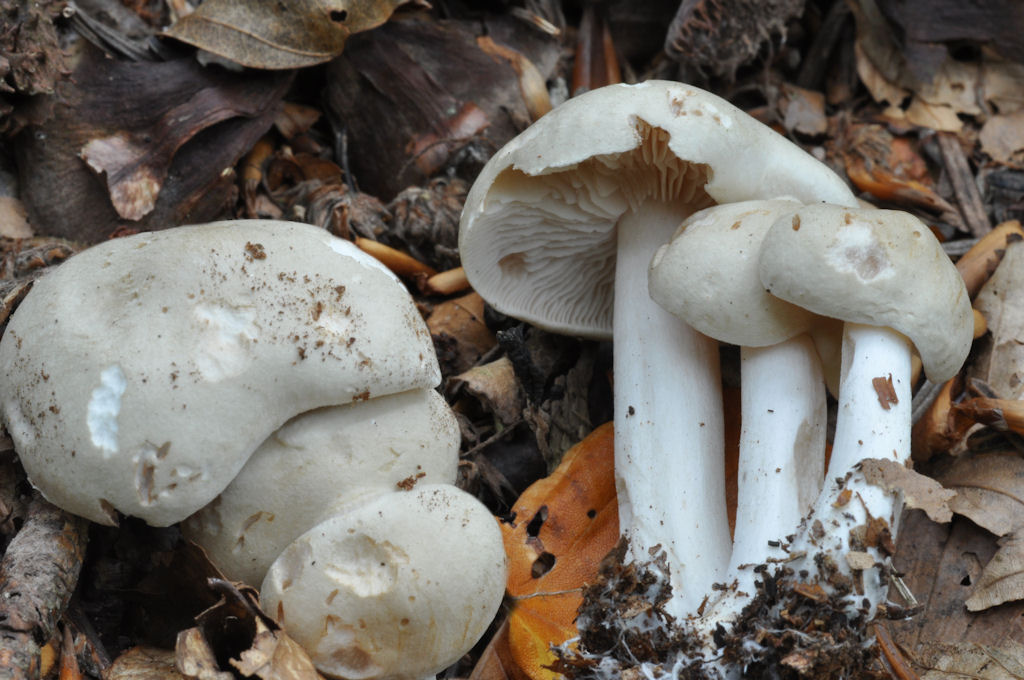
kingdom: Fungi
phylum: Basidiomycota
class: Agaricomycetes
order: Agaricales
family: Tricholomataceae
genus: Tricholoma
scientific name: Tricholoma lascivum
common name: stinkende ridderhat
